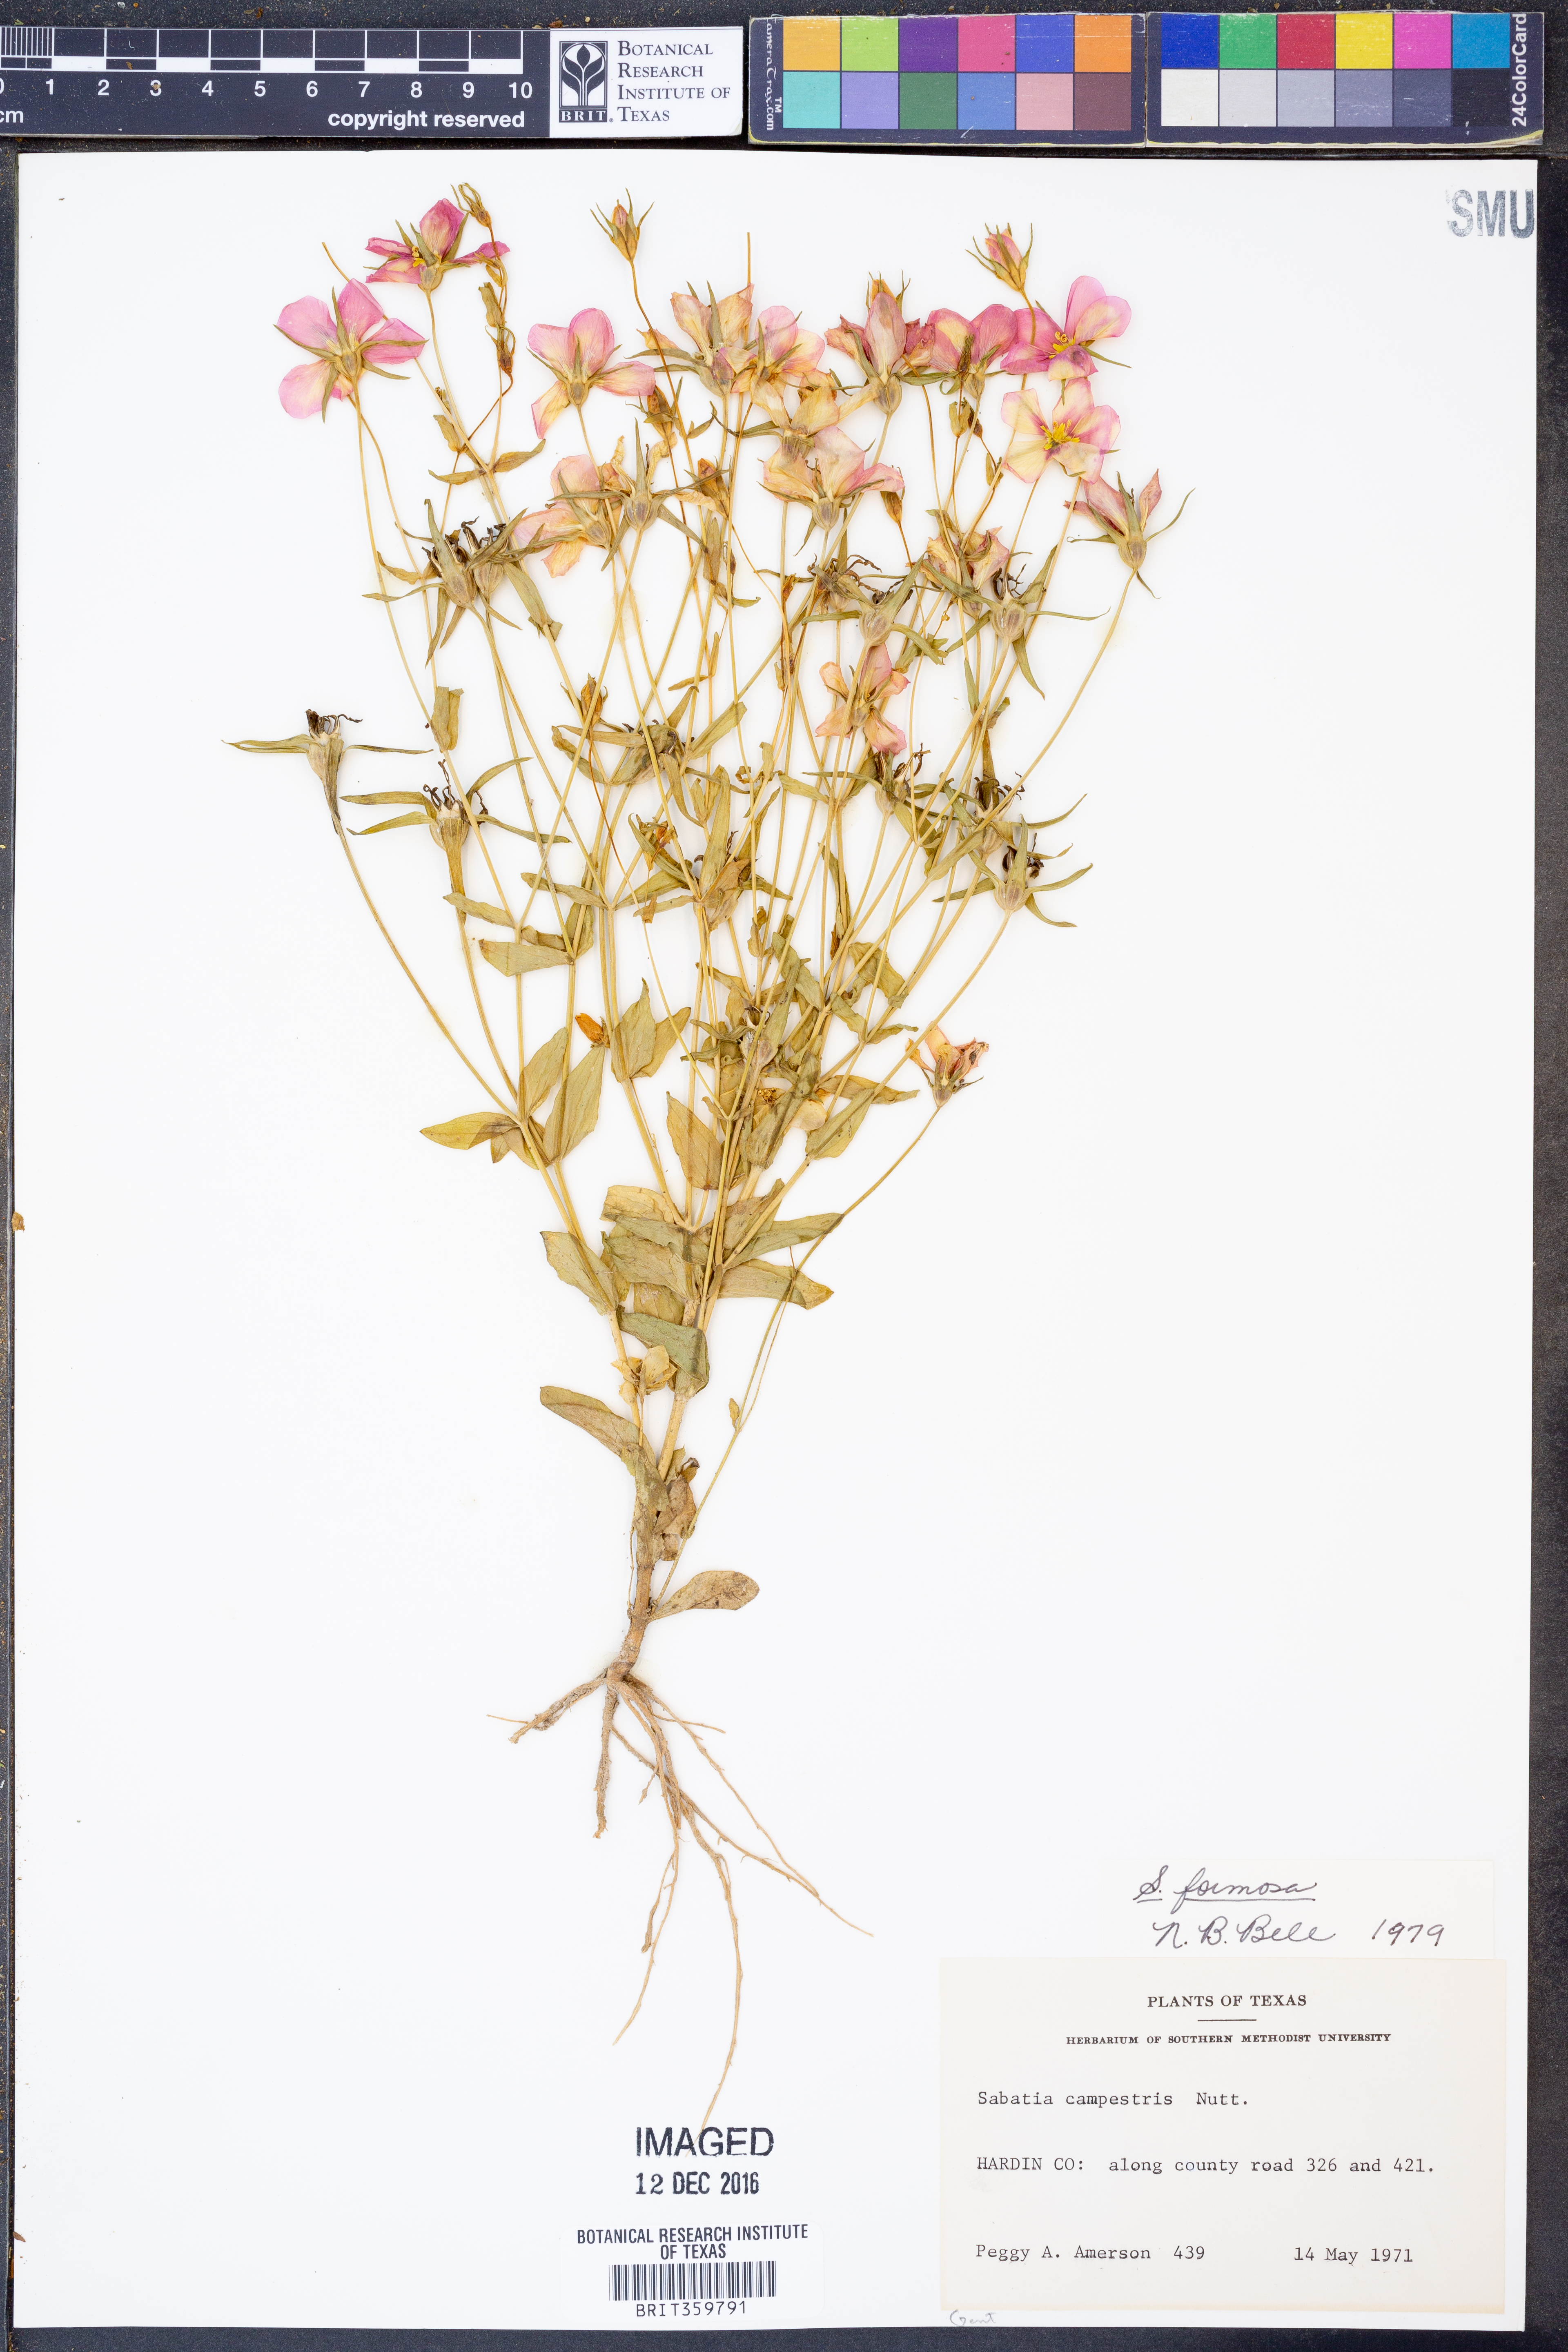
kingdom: Plantae
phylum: Tracheophyta
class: Magnoliopsida
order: Gentianales
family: Gentianaceae
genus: Sabatia
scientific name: Sabatia formosa
